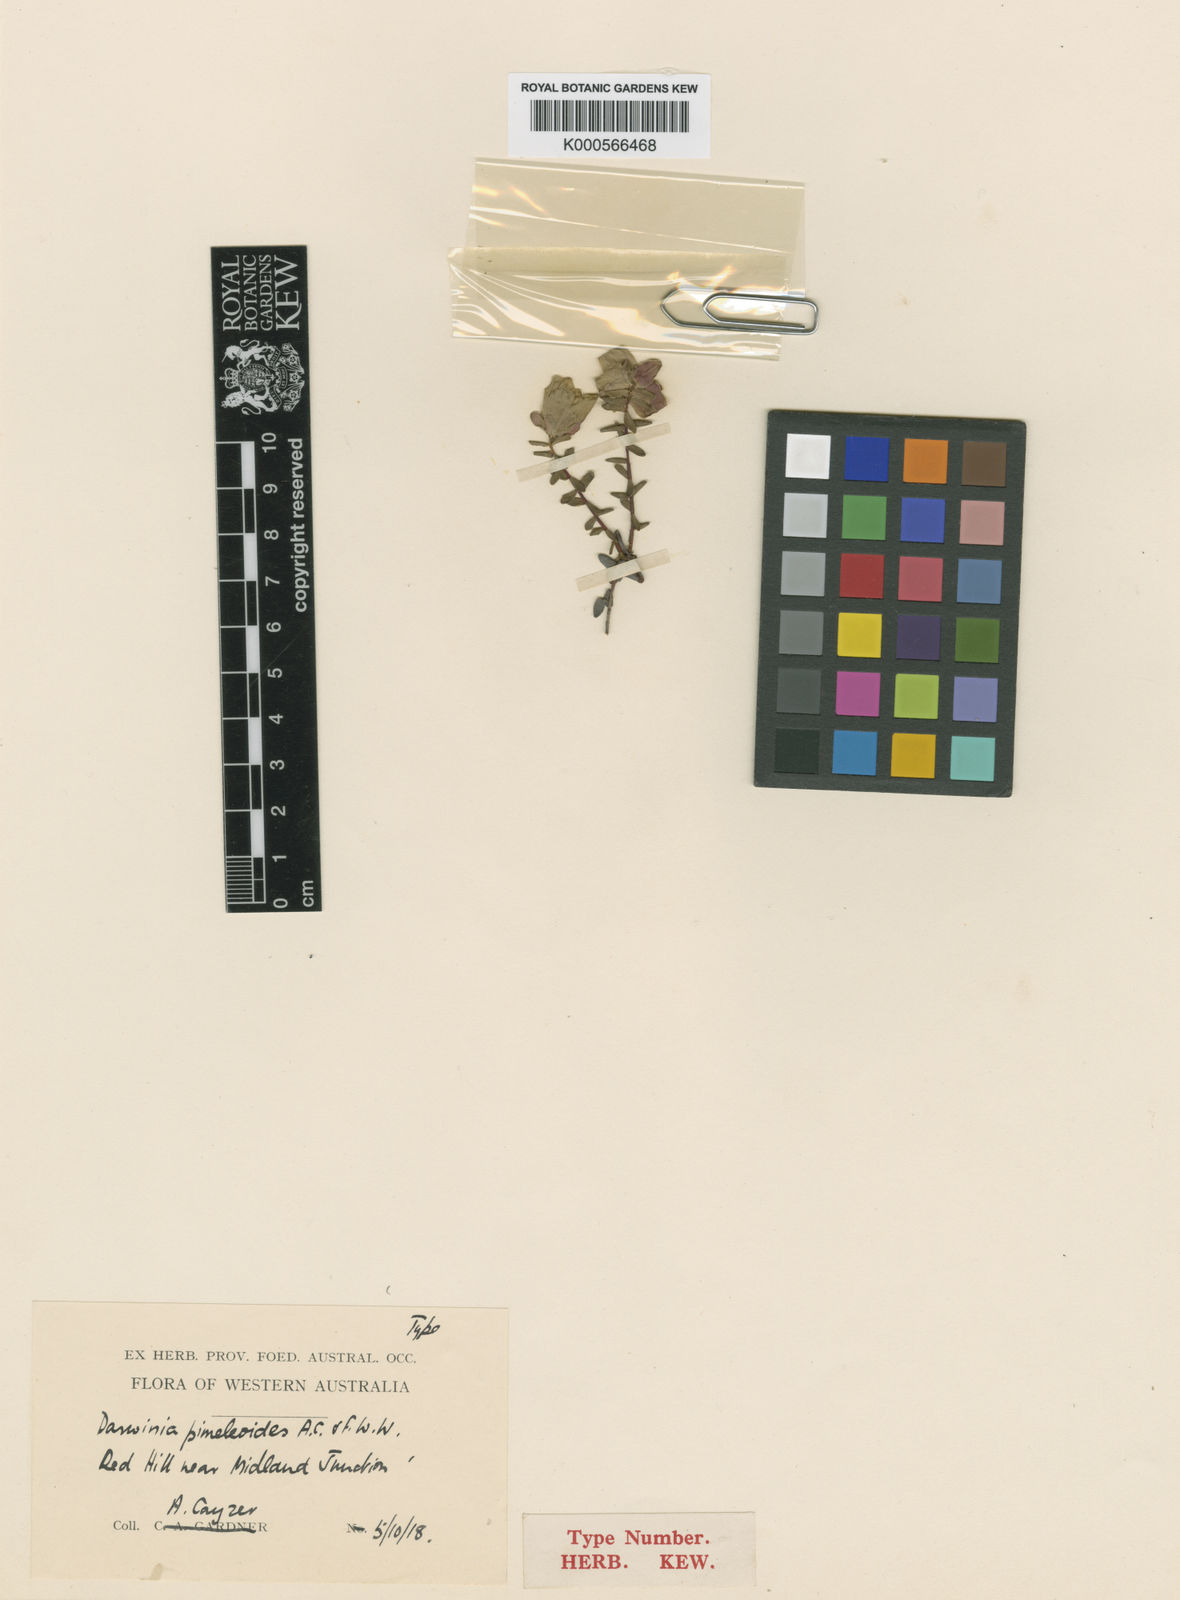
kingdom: Plantae
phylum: Tracheophyta
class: Magnoliopsida
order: Myrtales
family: Myrtaceae
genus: Darwinia
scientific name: Darwinia pimelioides
